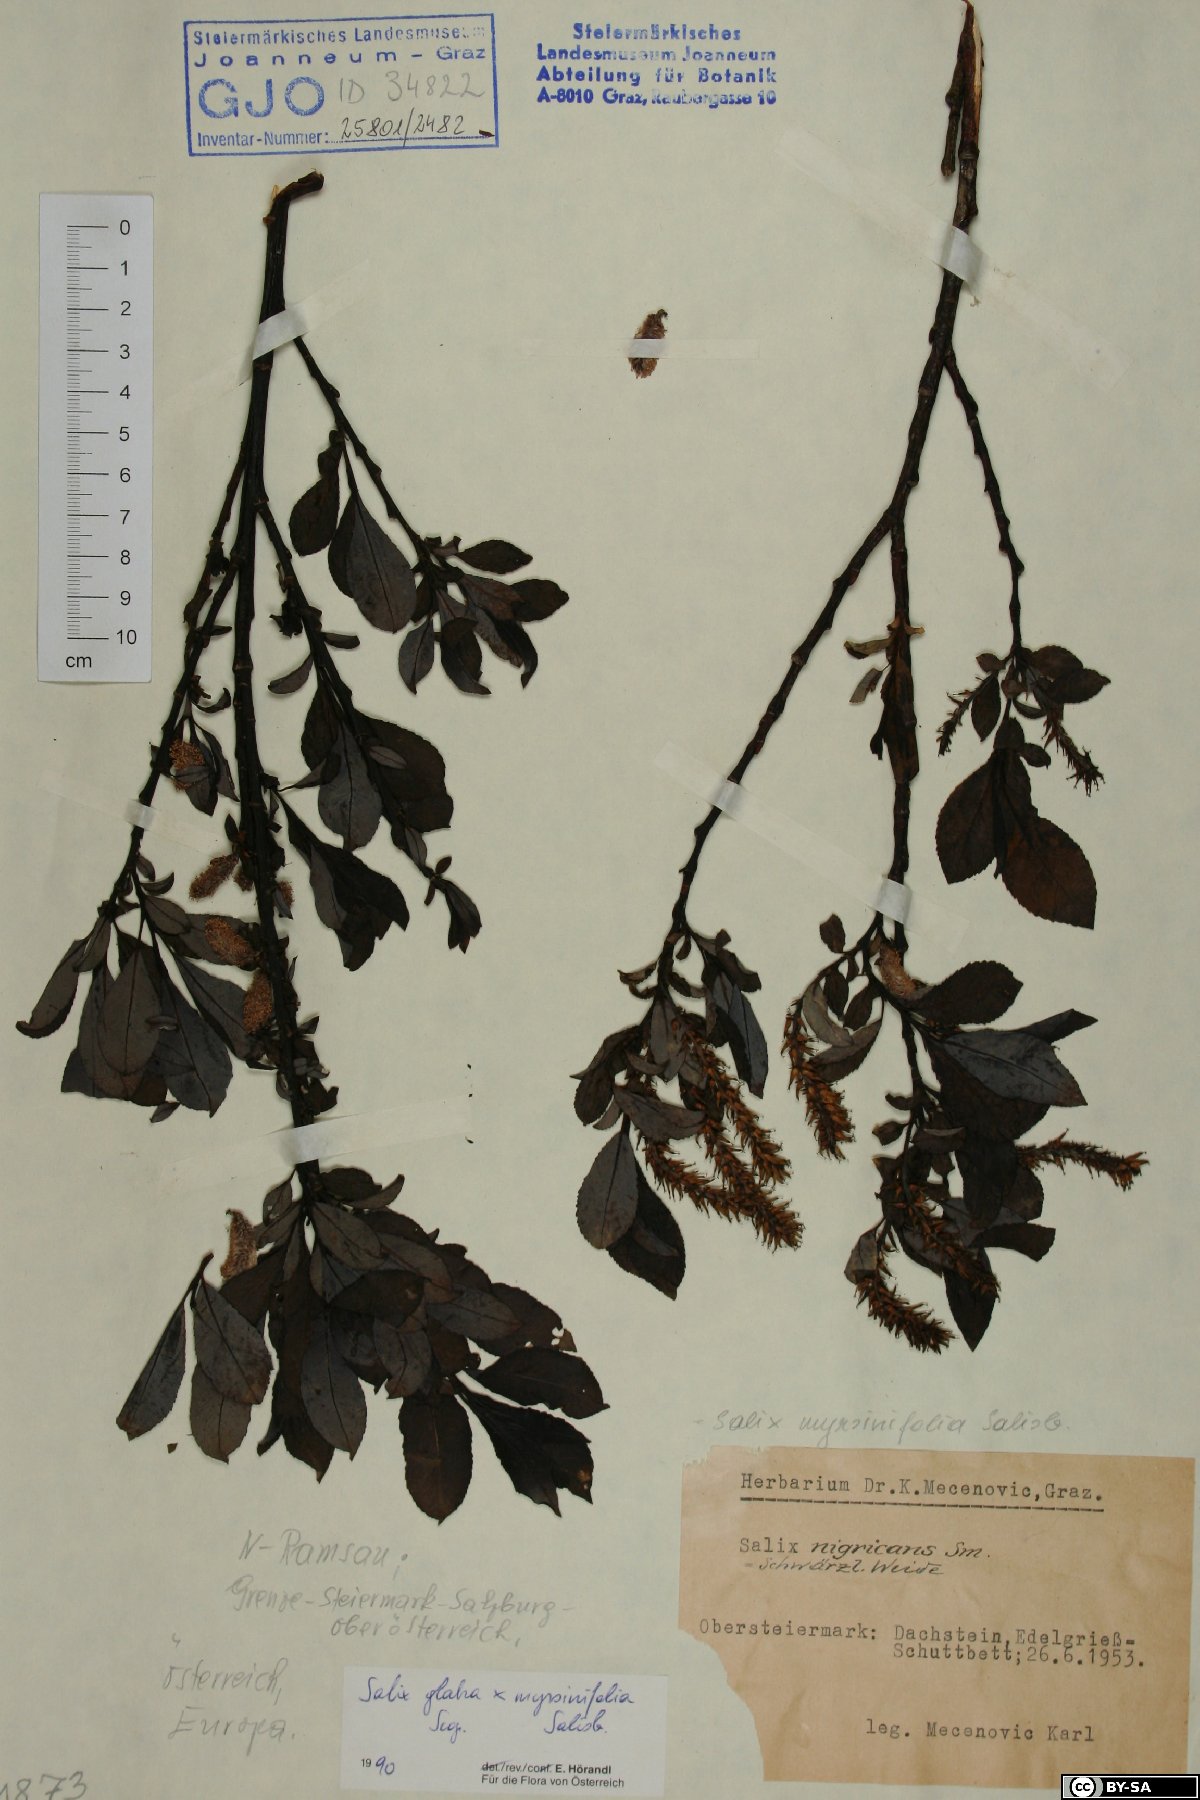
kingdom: Plantae
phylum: Tracheophyta
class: Magnoliopsida
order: Malpighiales
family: Salicaceae
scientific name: Salicaceae
